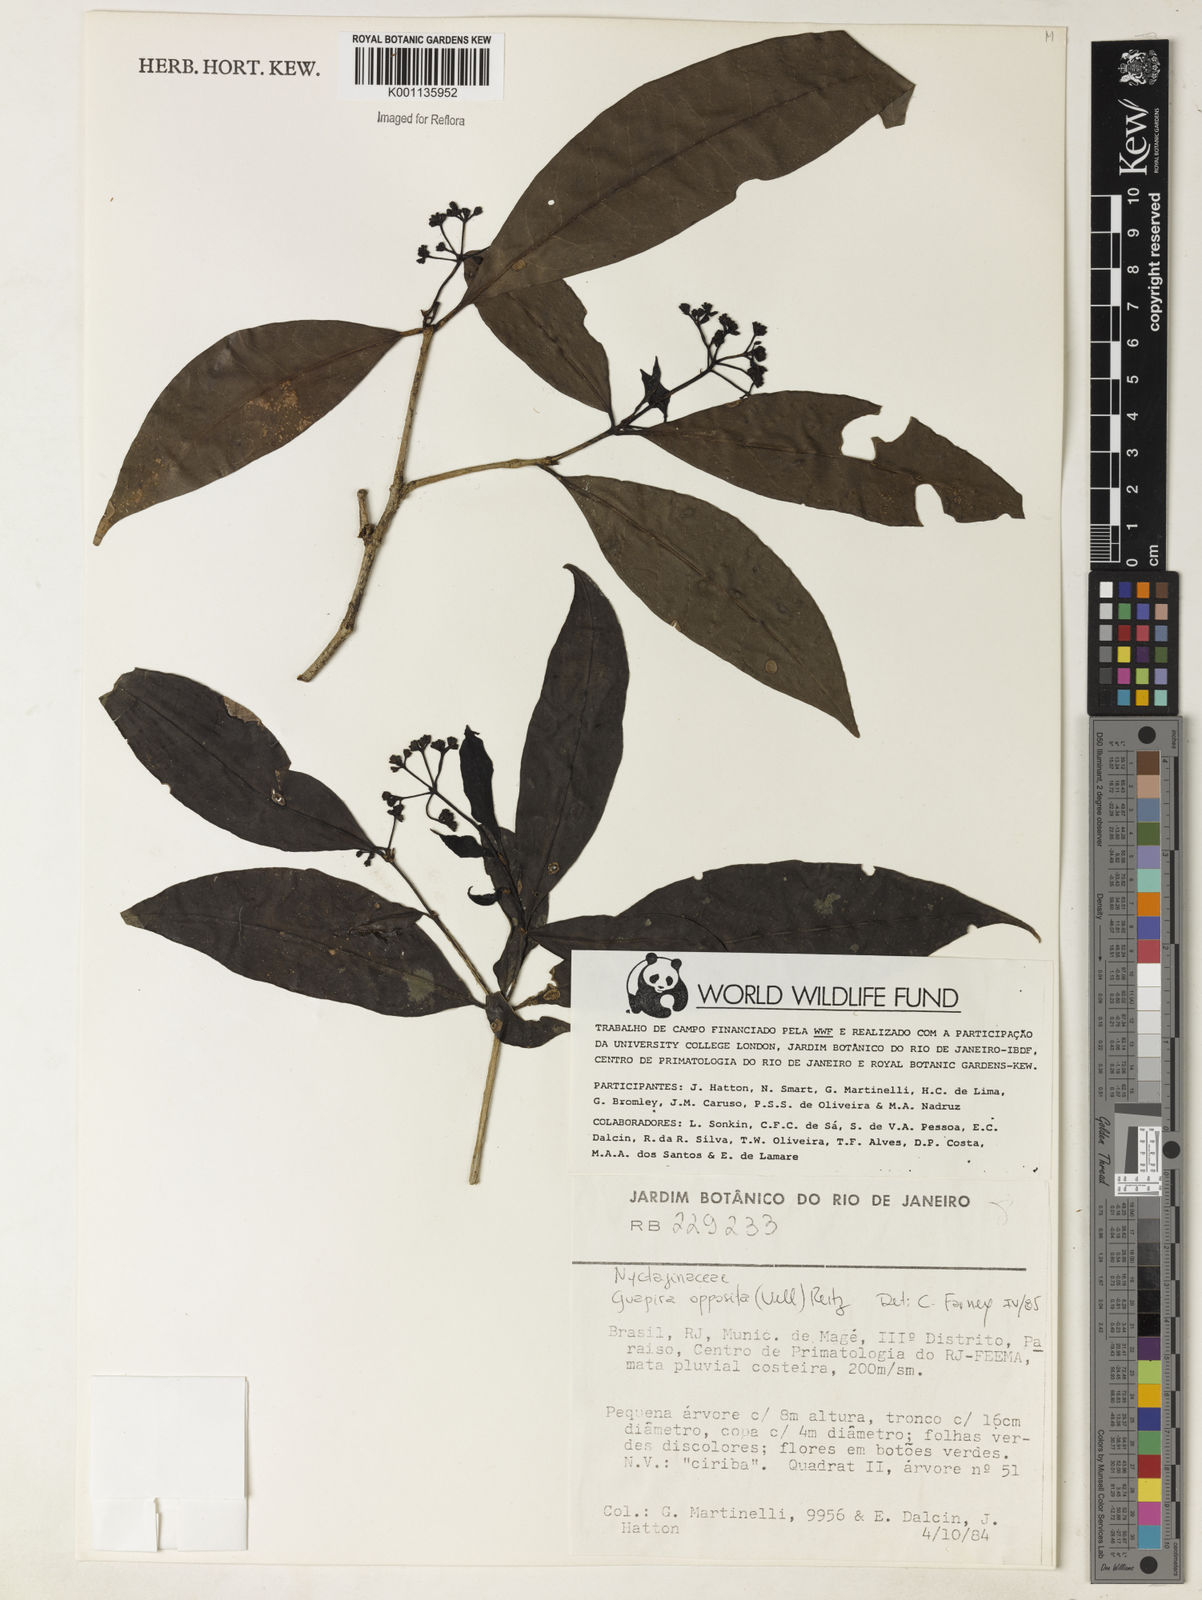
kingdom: Plantae
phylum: Tracheophyta
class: Magnoliopsida
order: Caryophyllales
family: Nyctaginaceae
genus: Guapira
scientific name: Guapira opposita
